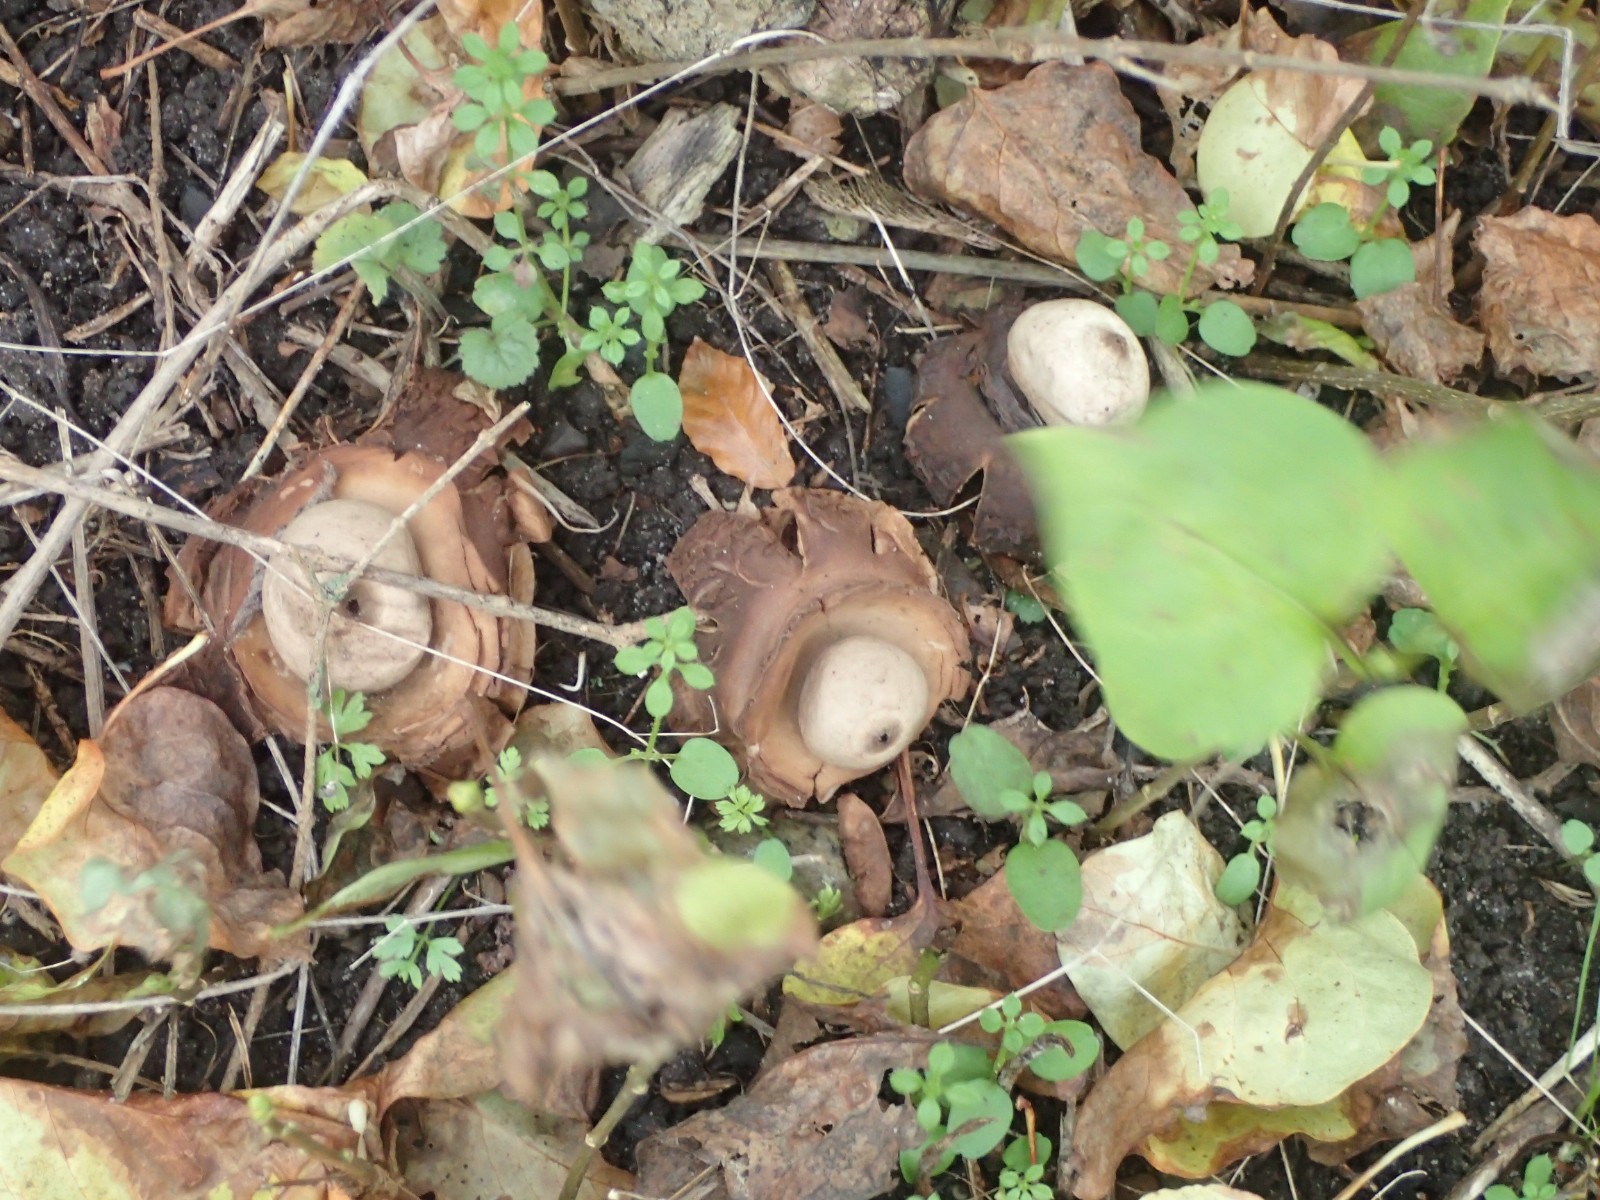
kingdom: Fungi
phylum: Basidiomycota
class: Agaricomycetes
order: Geastrales
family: Geastraceae
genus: Geastrum
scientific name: Geastrum michelianum
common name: kødet stjernebold
